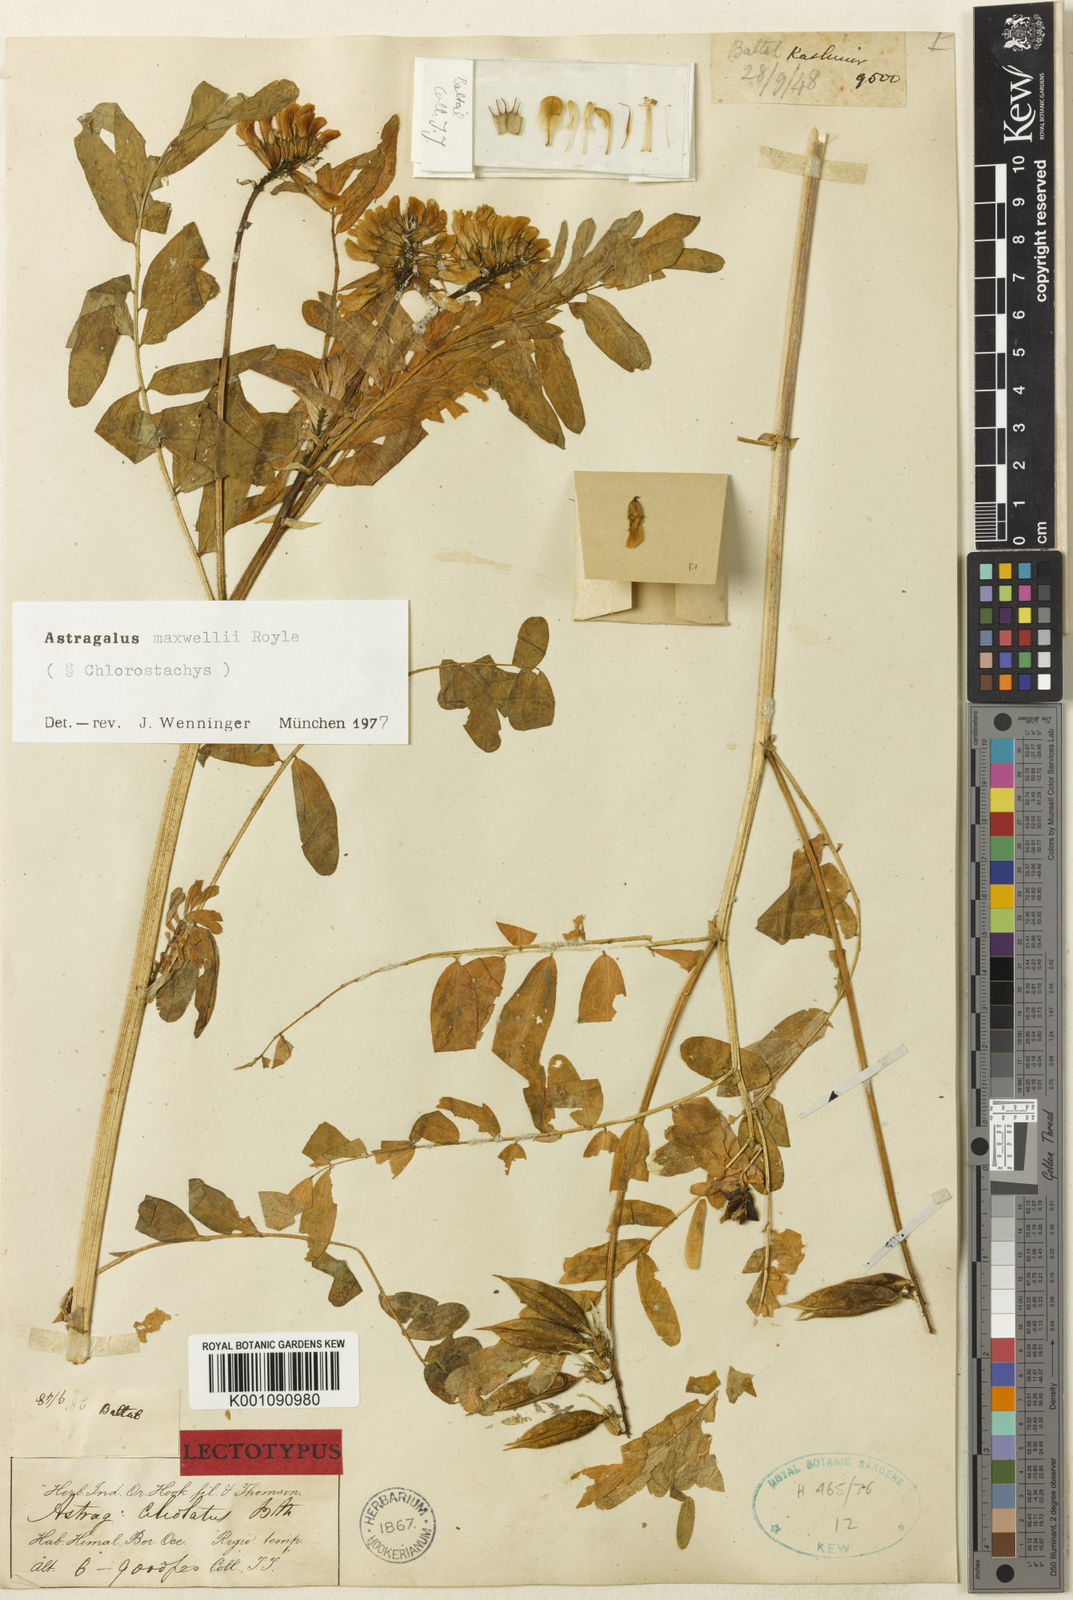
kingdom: Plantae
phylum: Tracheophyta
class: Magnoliopsida
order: Fabales
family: Fabaceae
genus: Astragalus
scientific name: Astragalus
